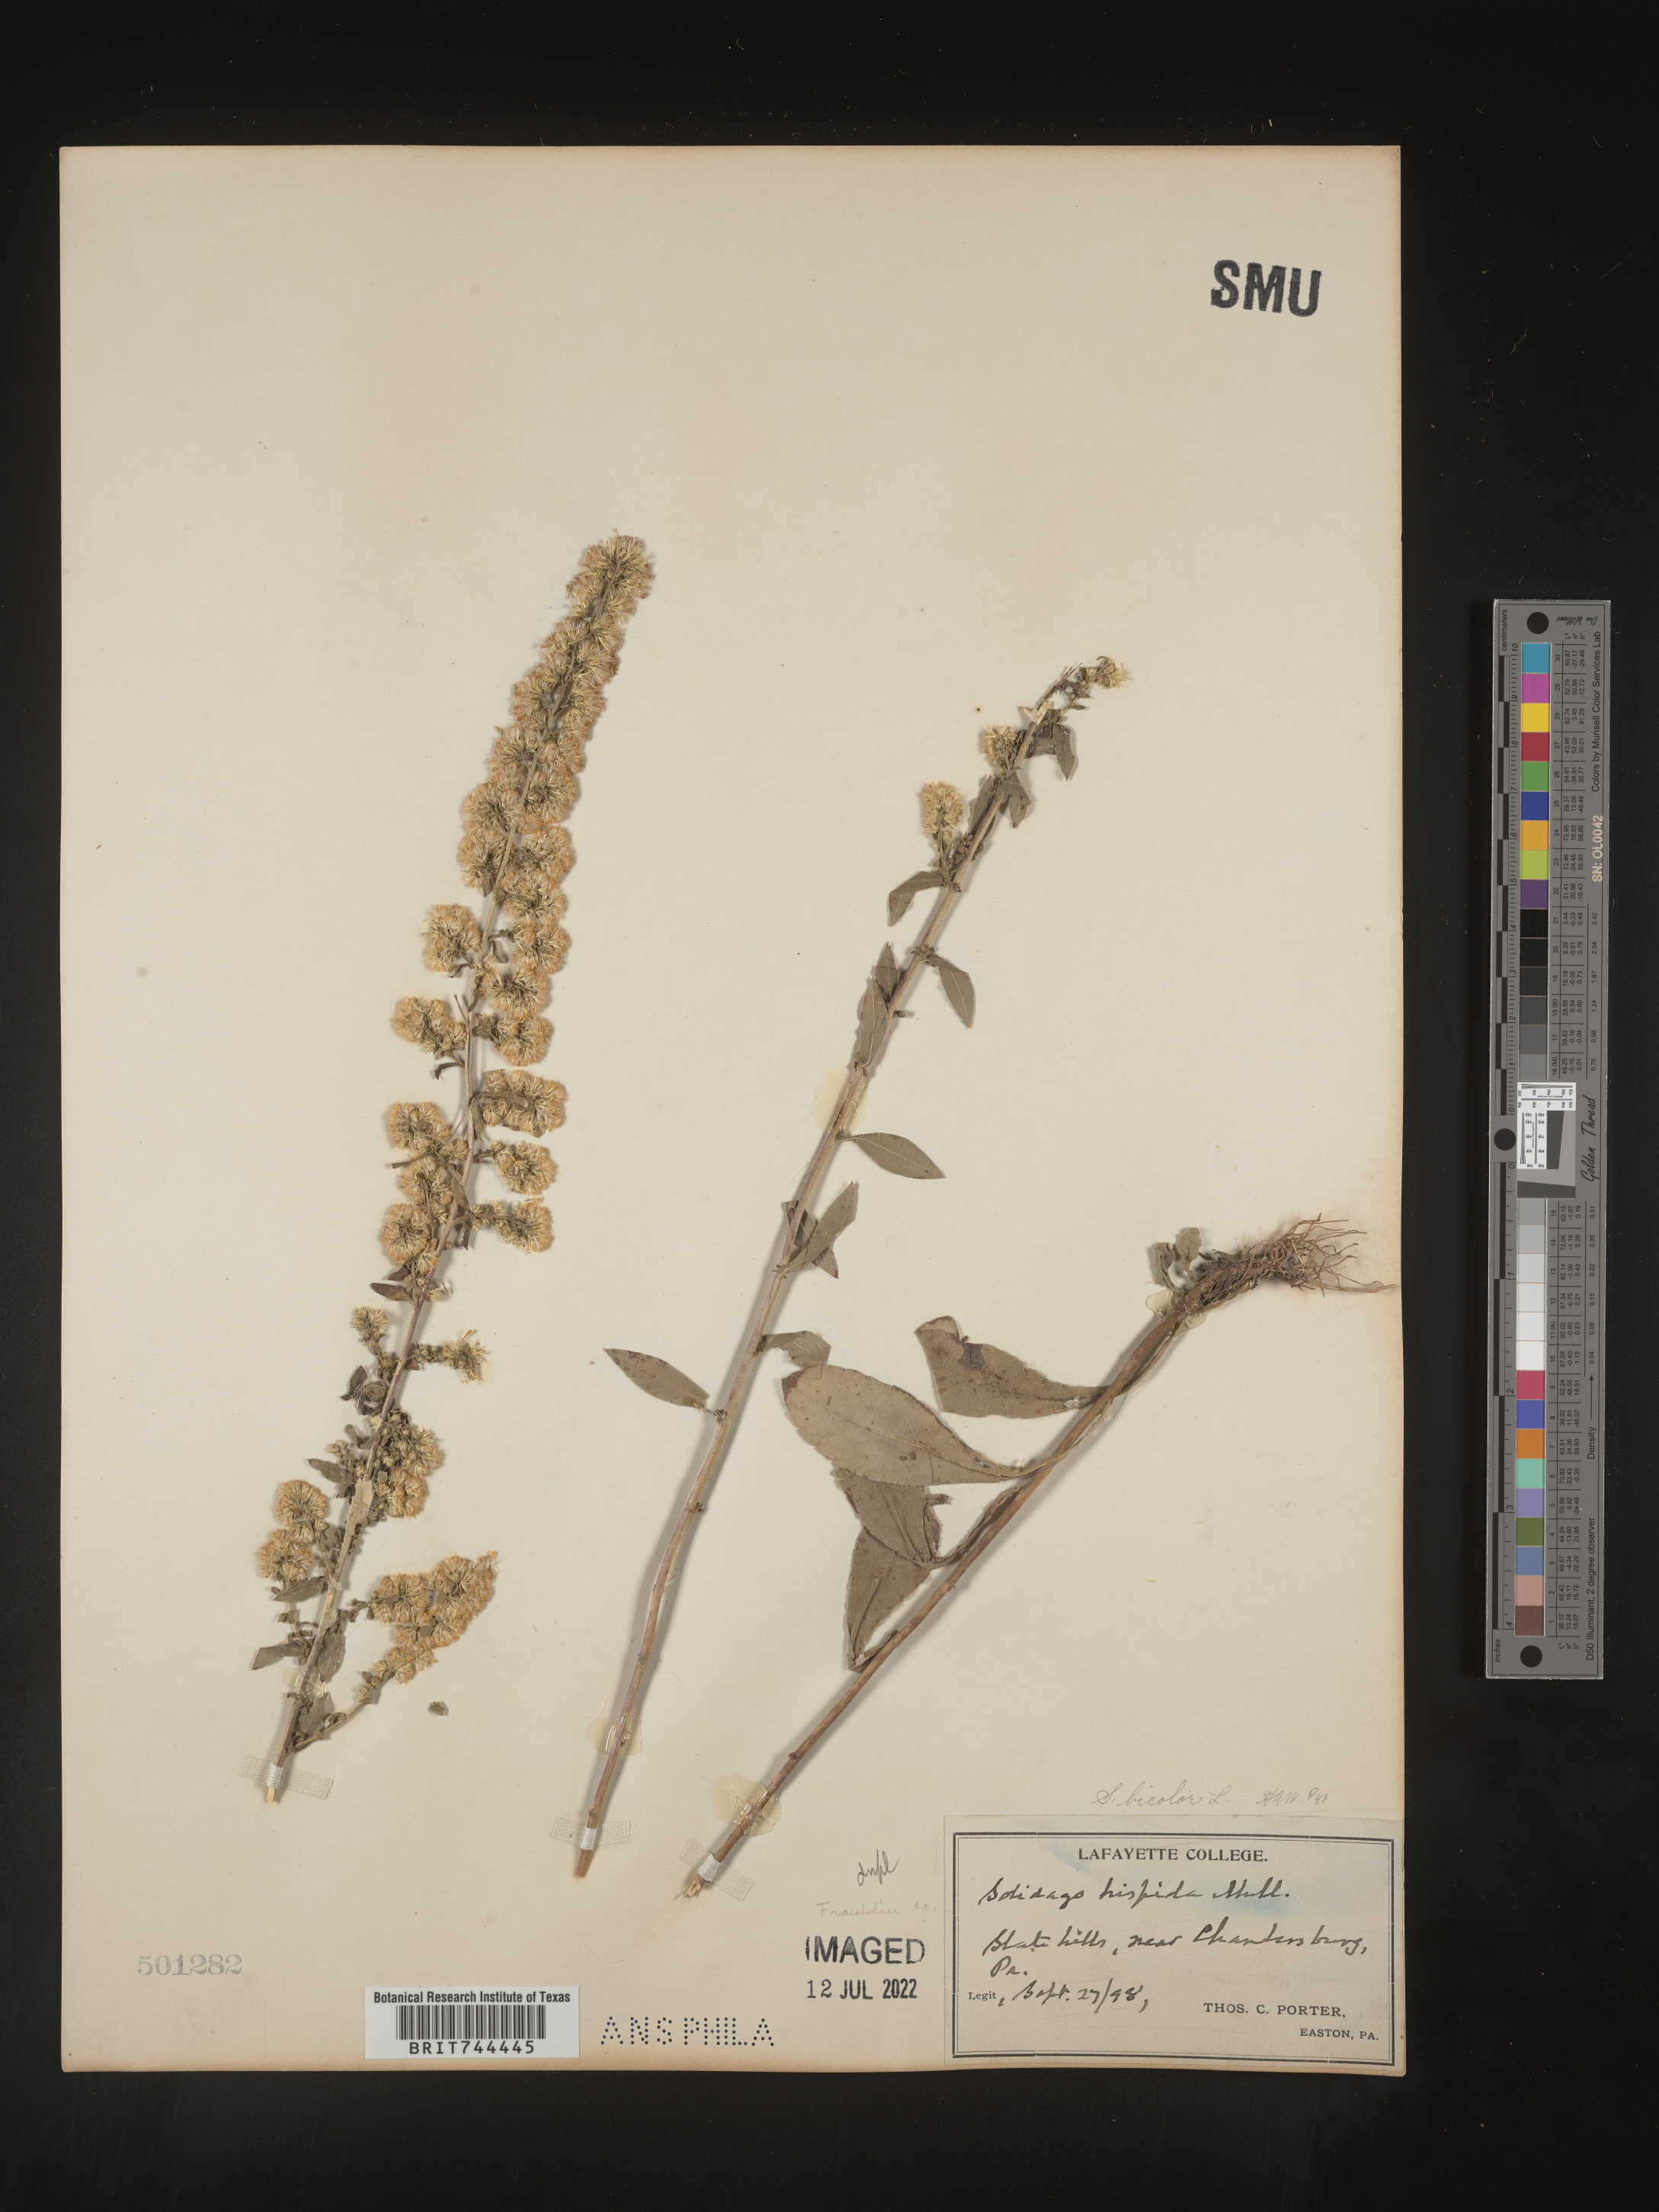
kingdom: Plantae
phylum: Tracheophyta
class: Magnoliopsida
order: Asterales
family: Asteraceae
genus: Solidago
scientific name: Solidago bicolor
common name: Silverrod
